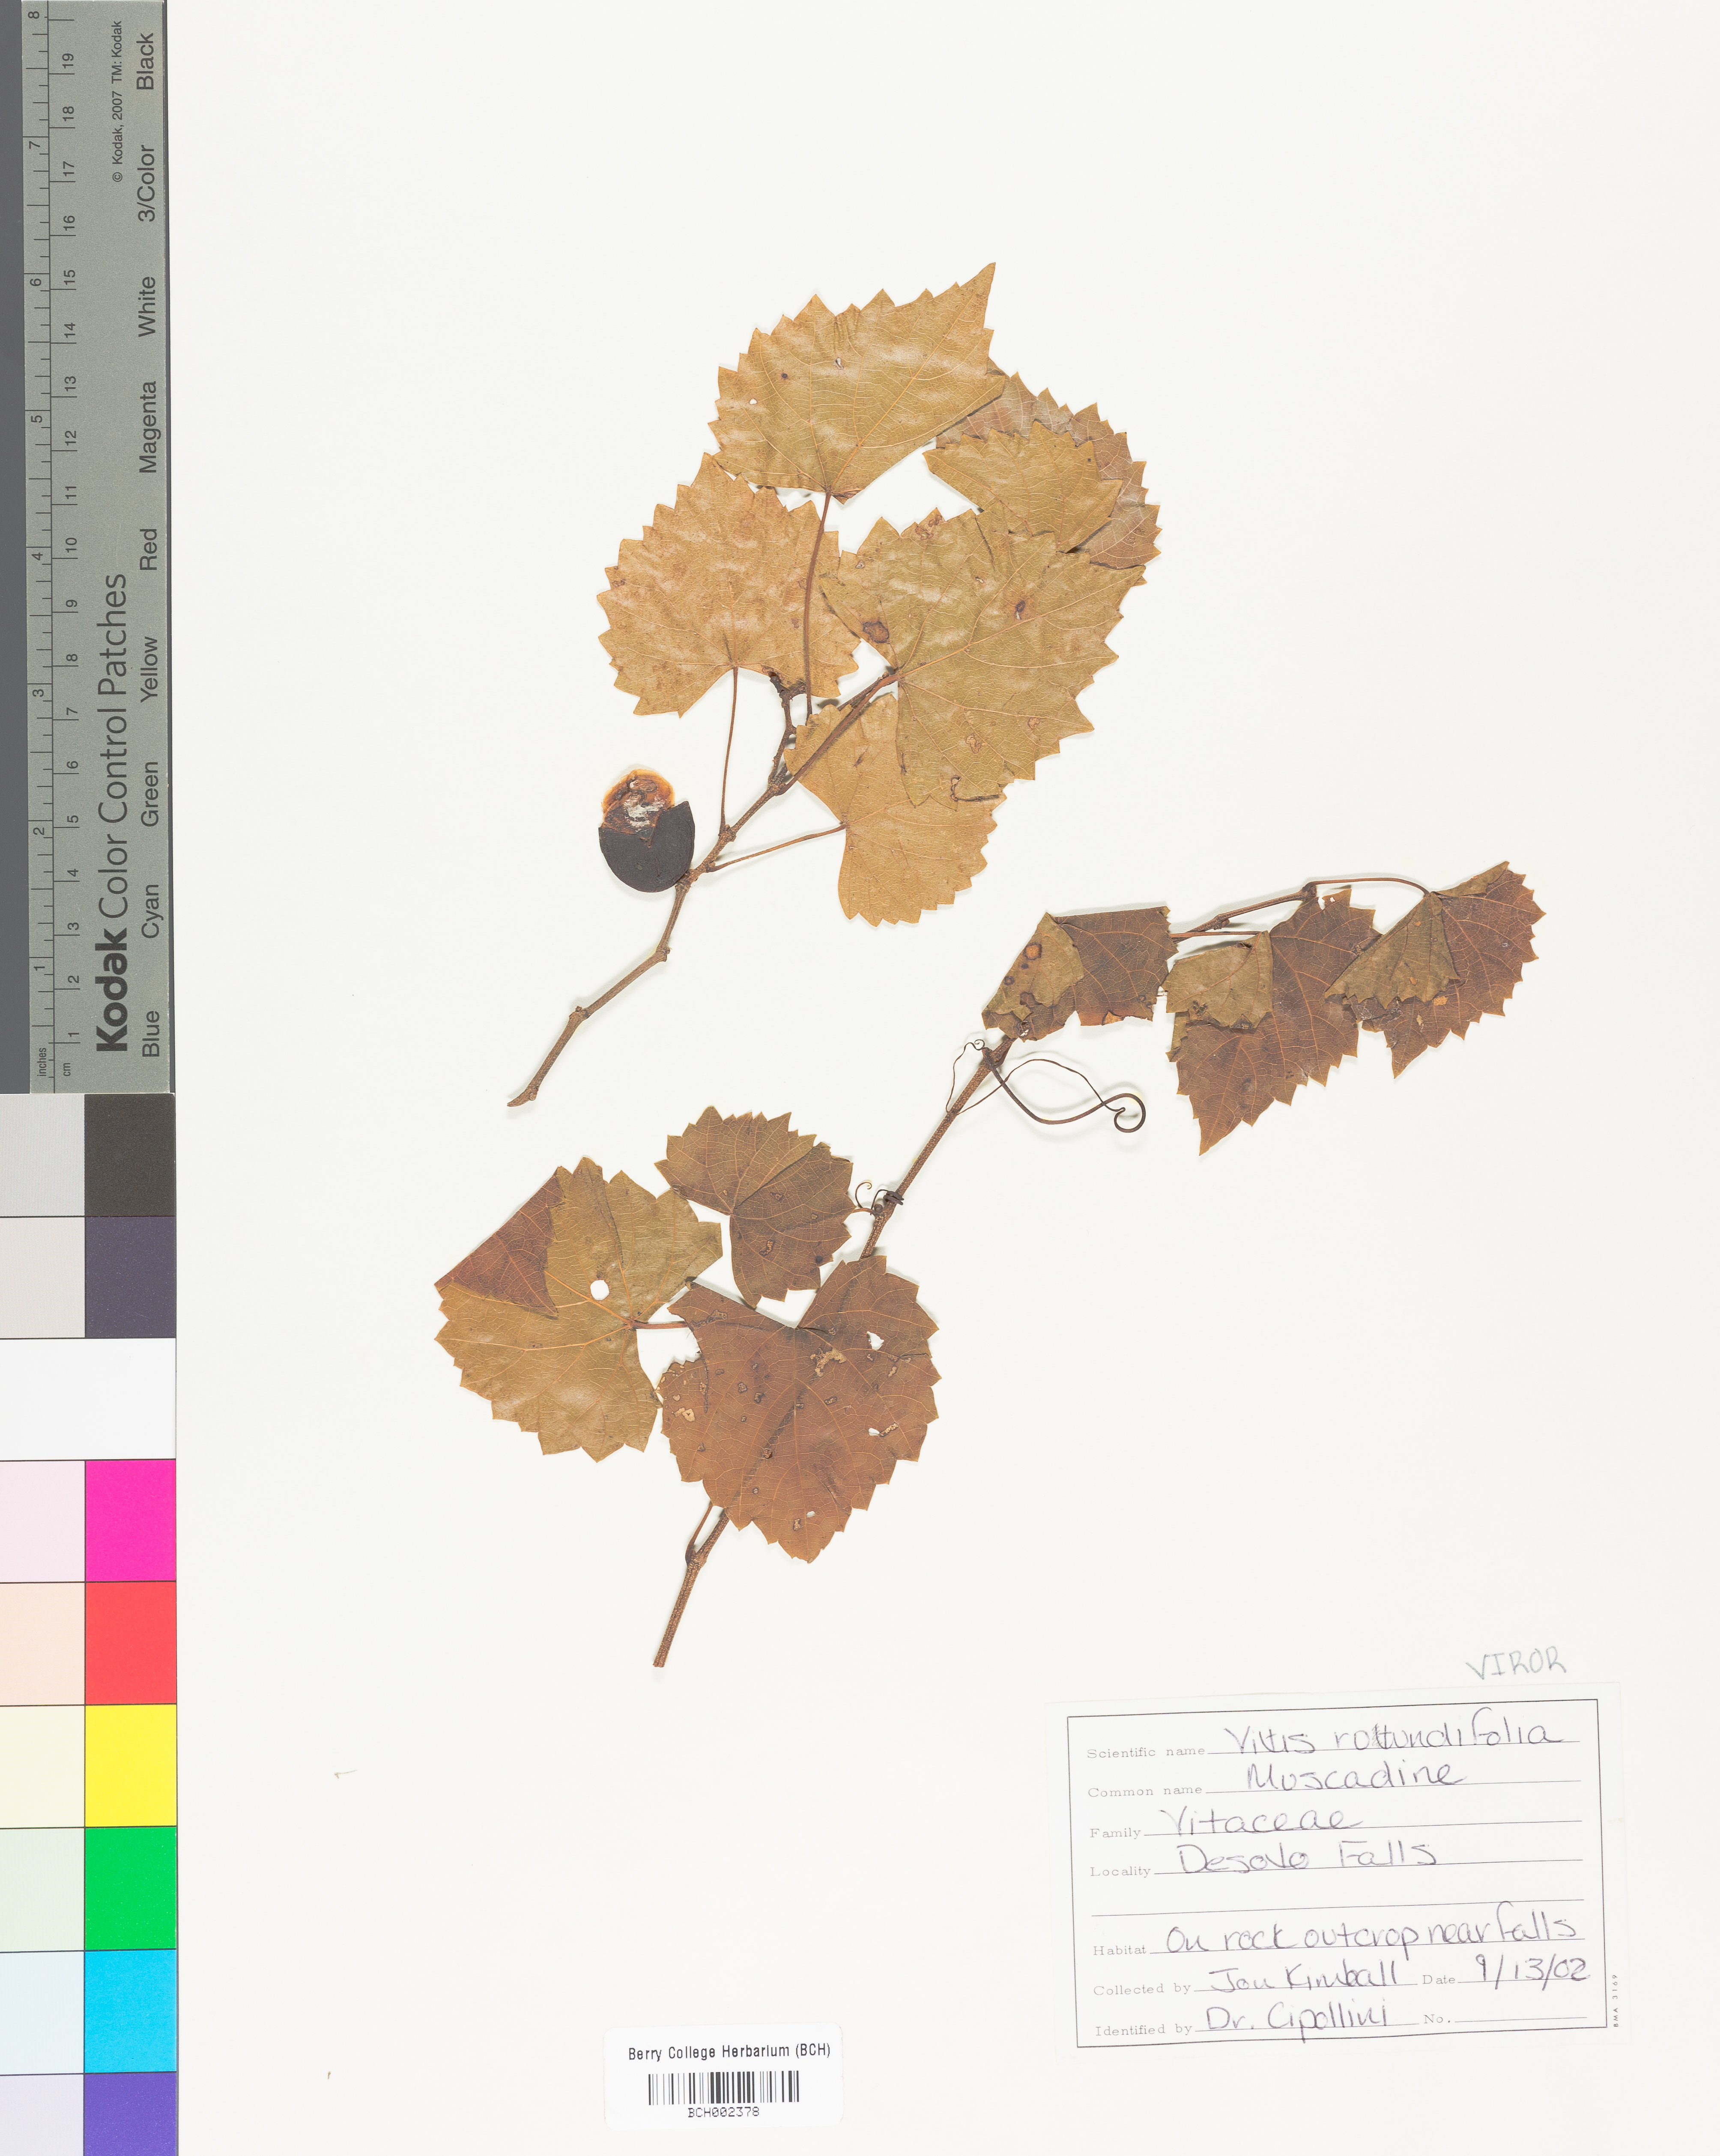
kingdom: Plantae
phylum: Tracheophyta
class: Magnoliopsida
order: Vitales
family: Vitaceae
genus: Vitis
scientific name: Vitis rotundifolia
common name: Muscadine grape
